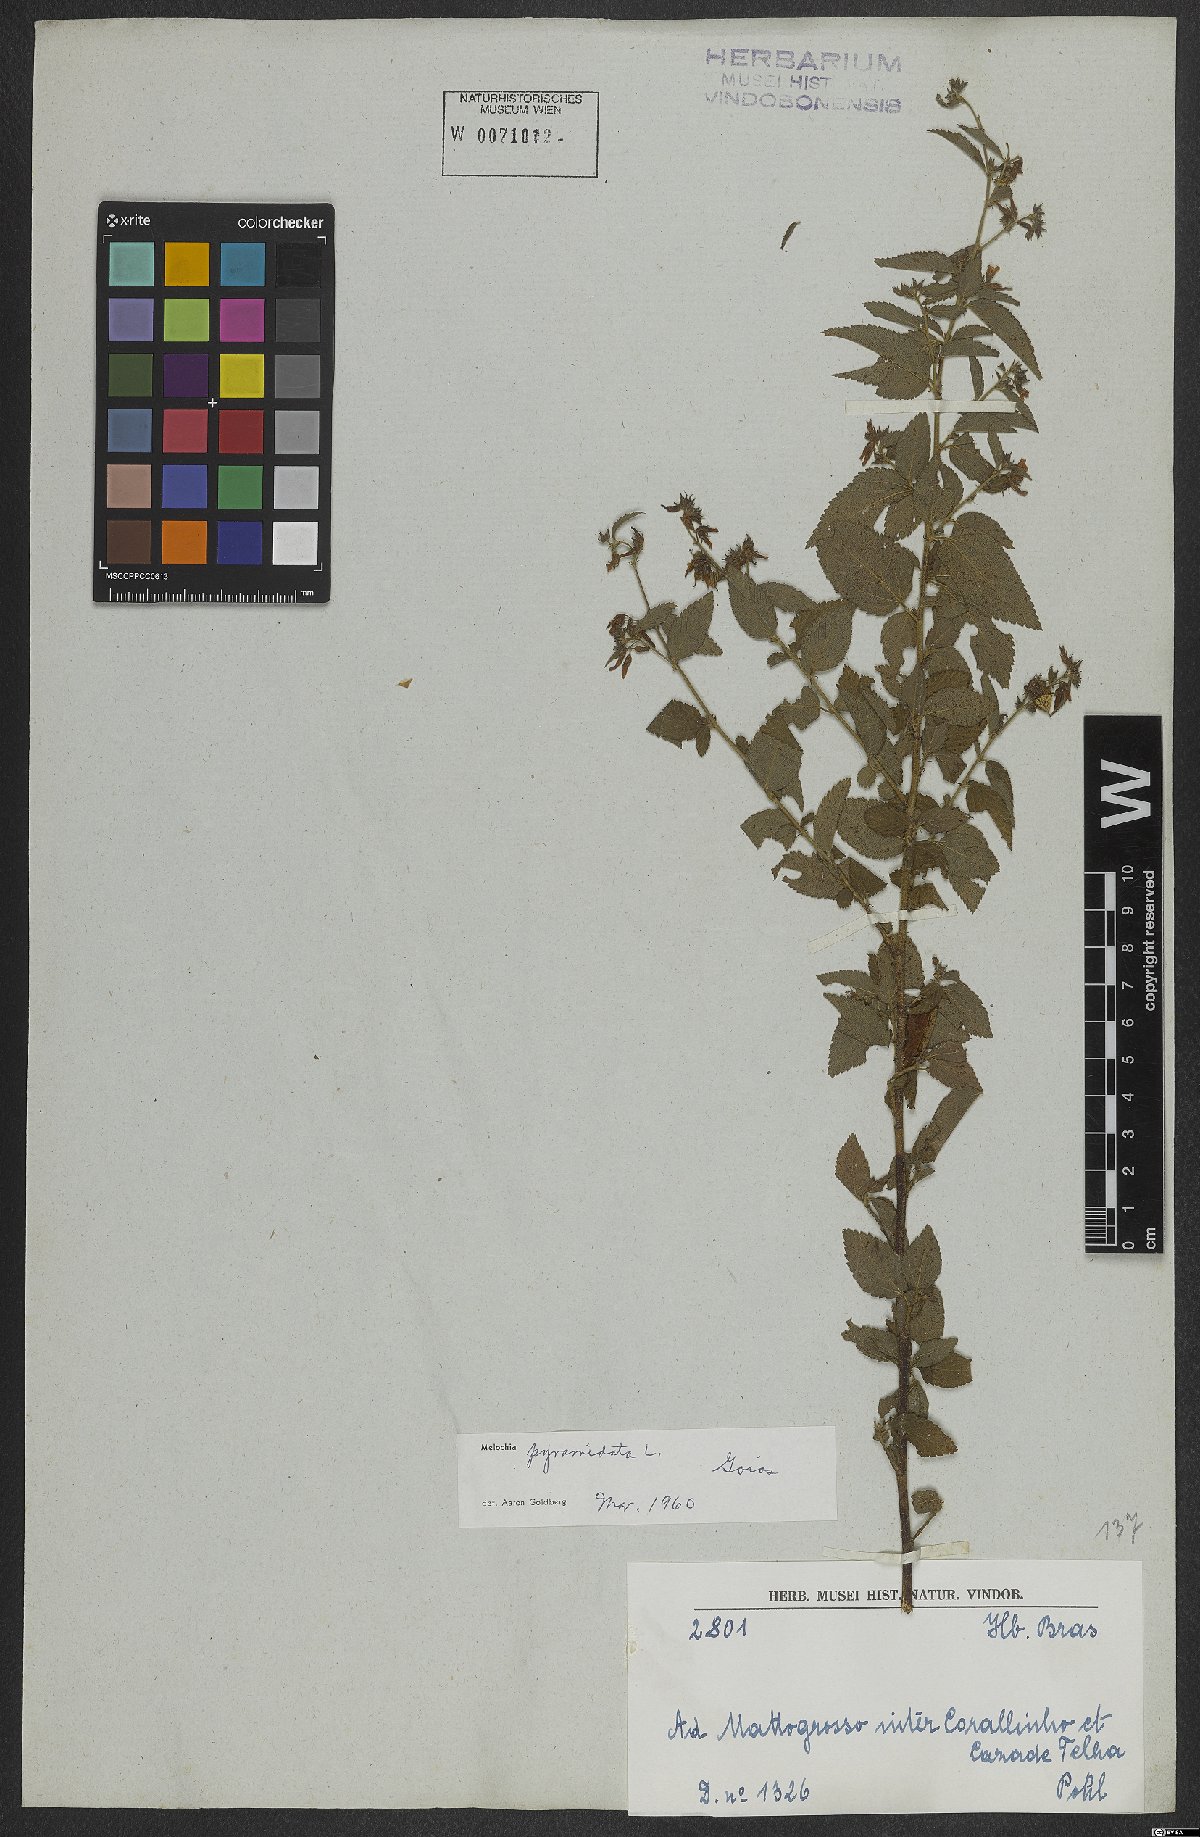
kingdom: Plantae
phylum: Tracheophyta
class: Magnoliopsida
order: Malvales
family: Malvaceae
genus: Melochia
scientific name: Melochia pyramidata
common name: Pyramidflower
